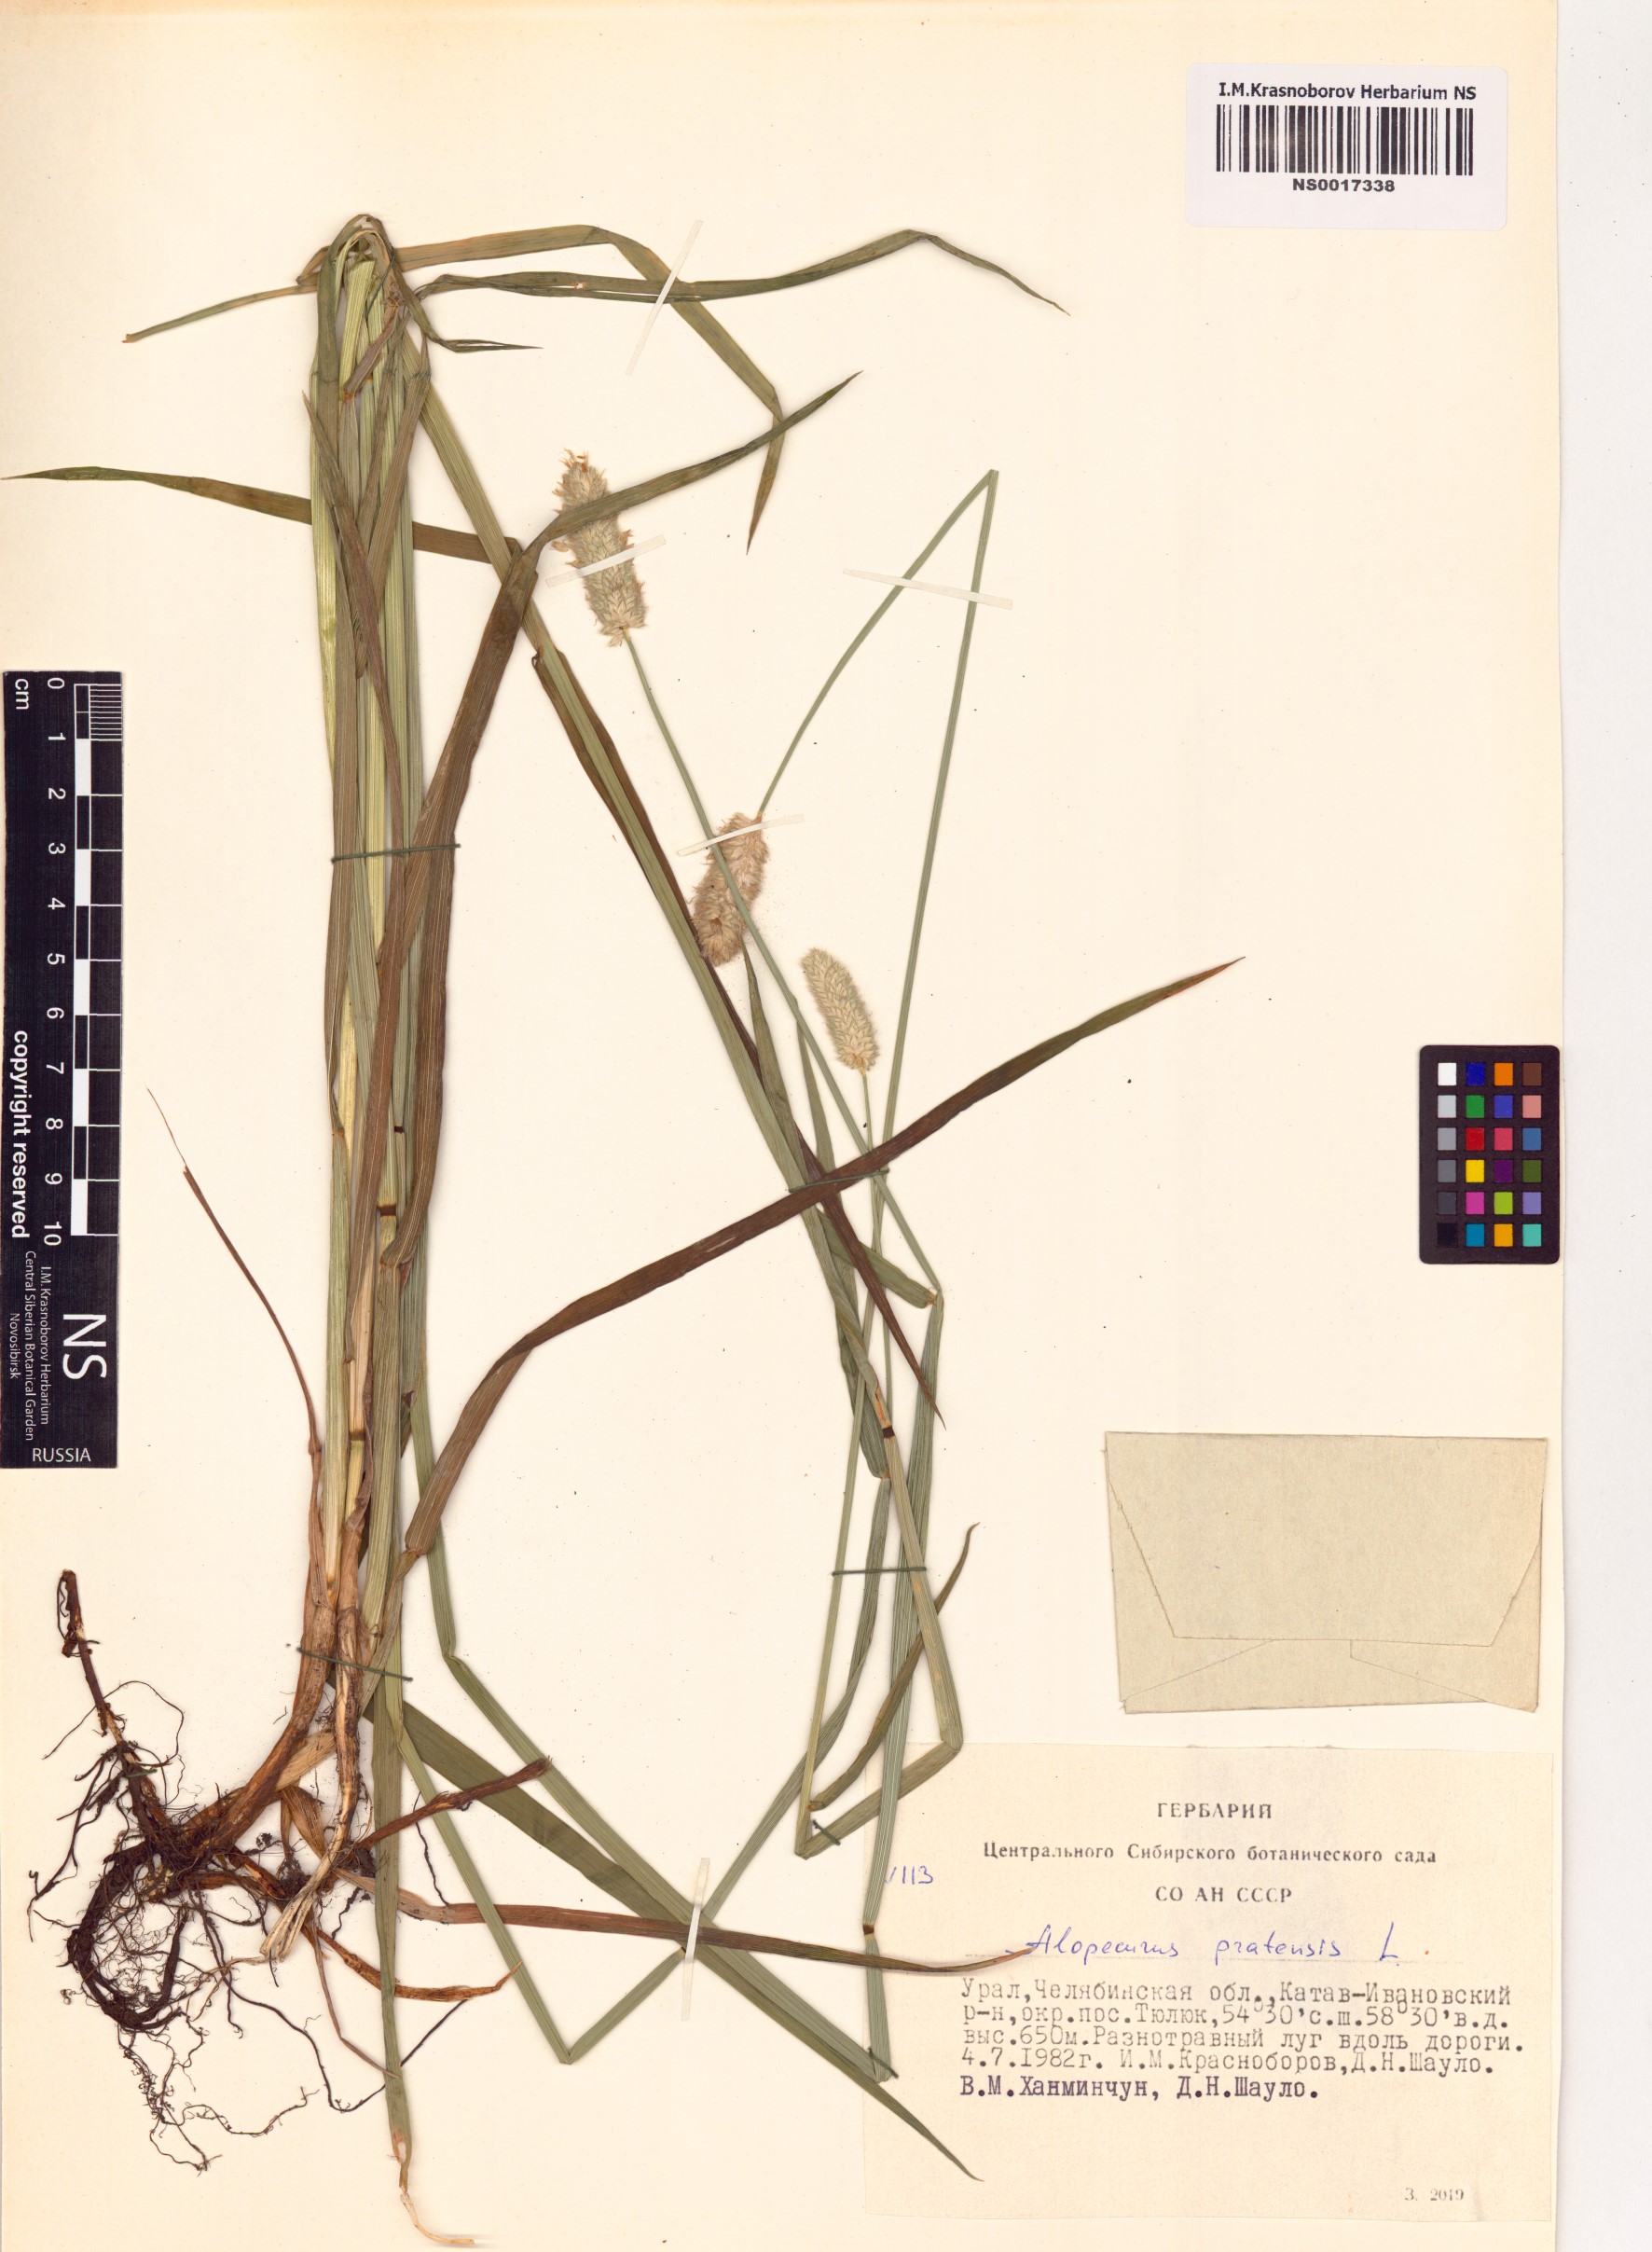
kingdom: Plantae
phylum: Tracheophyta
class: Liliopsida
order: Poales
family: Poaceae
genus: Alopecurus
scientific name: Alopecurus pratensis
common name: Meadow foxtail
